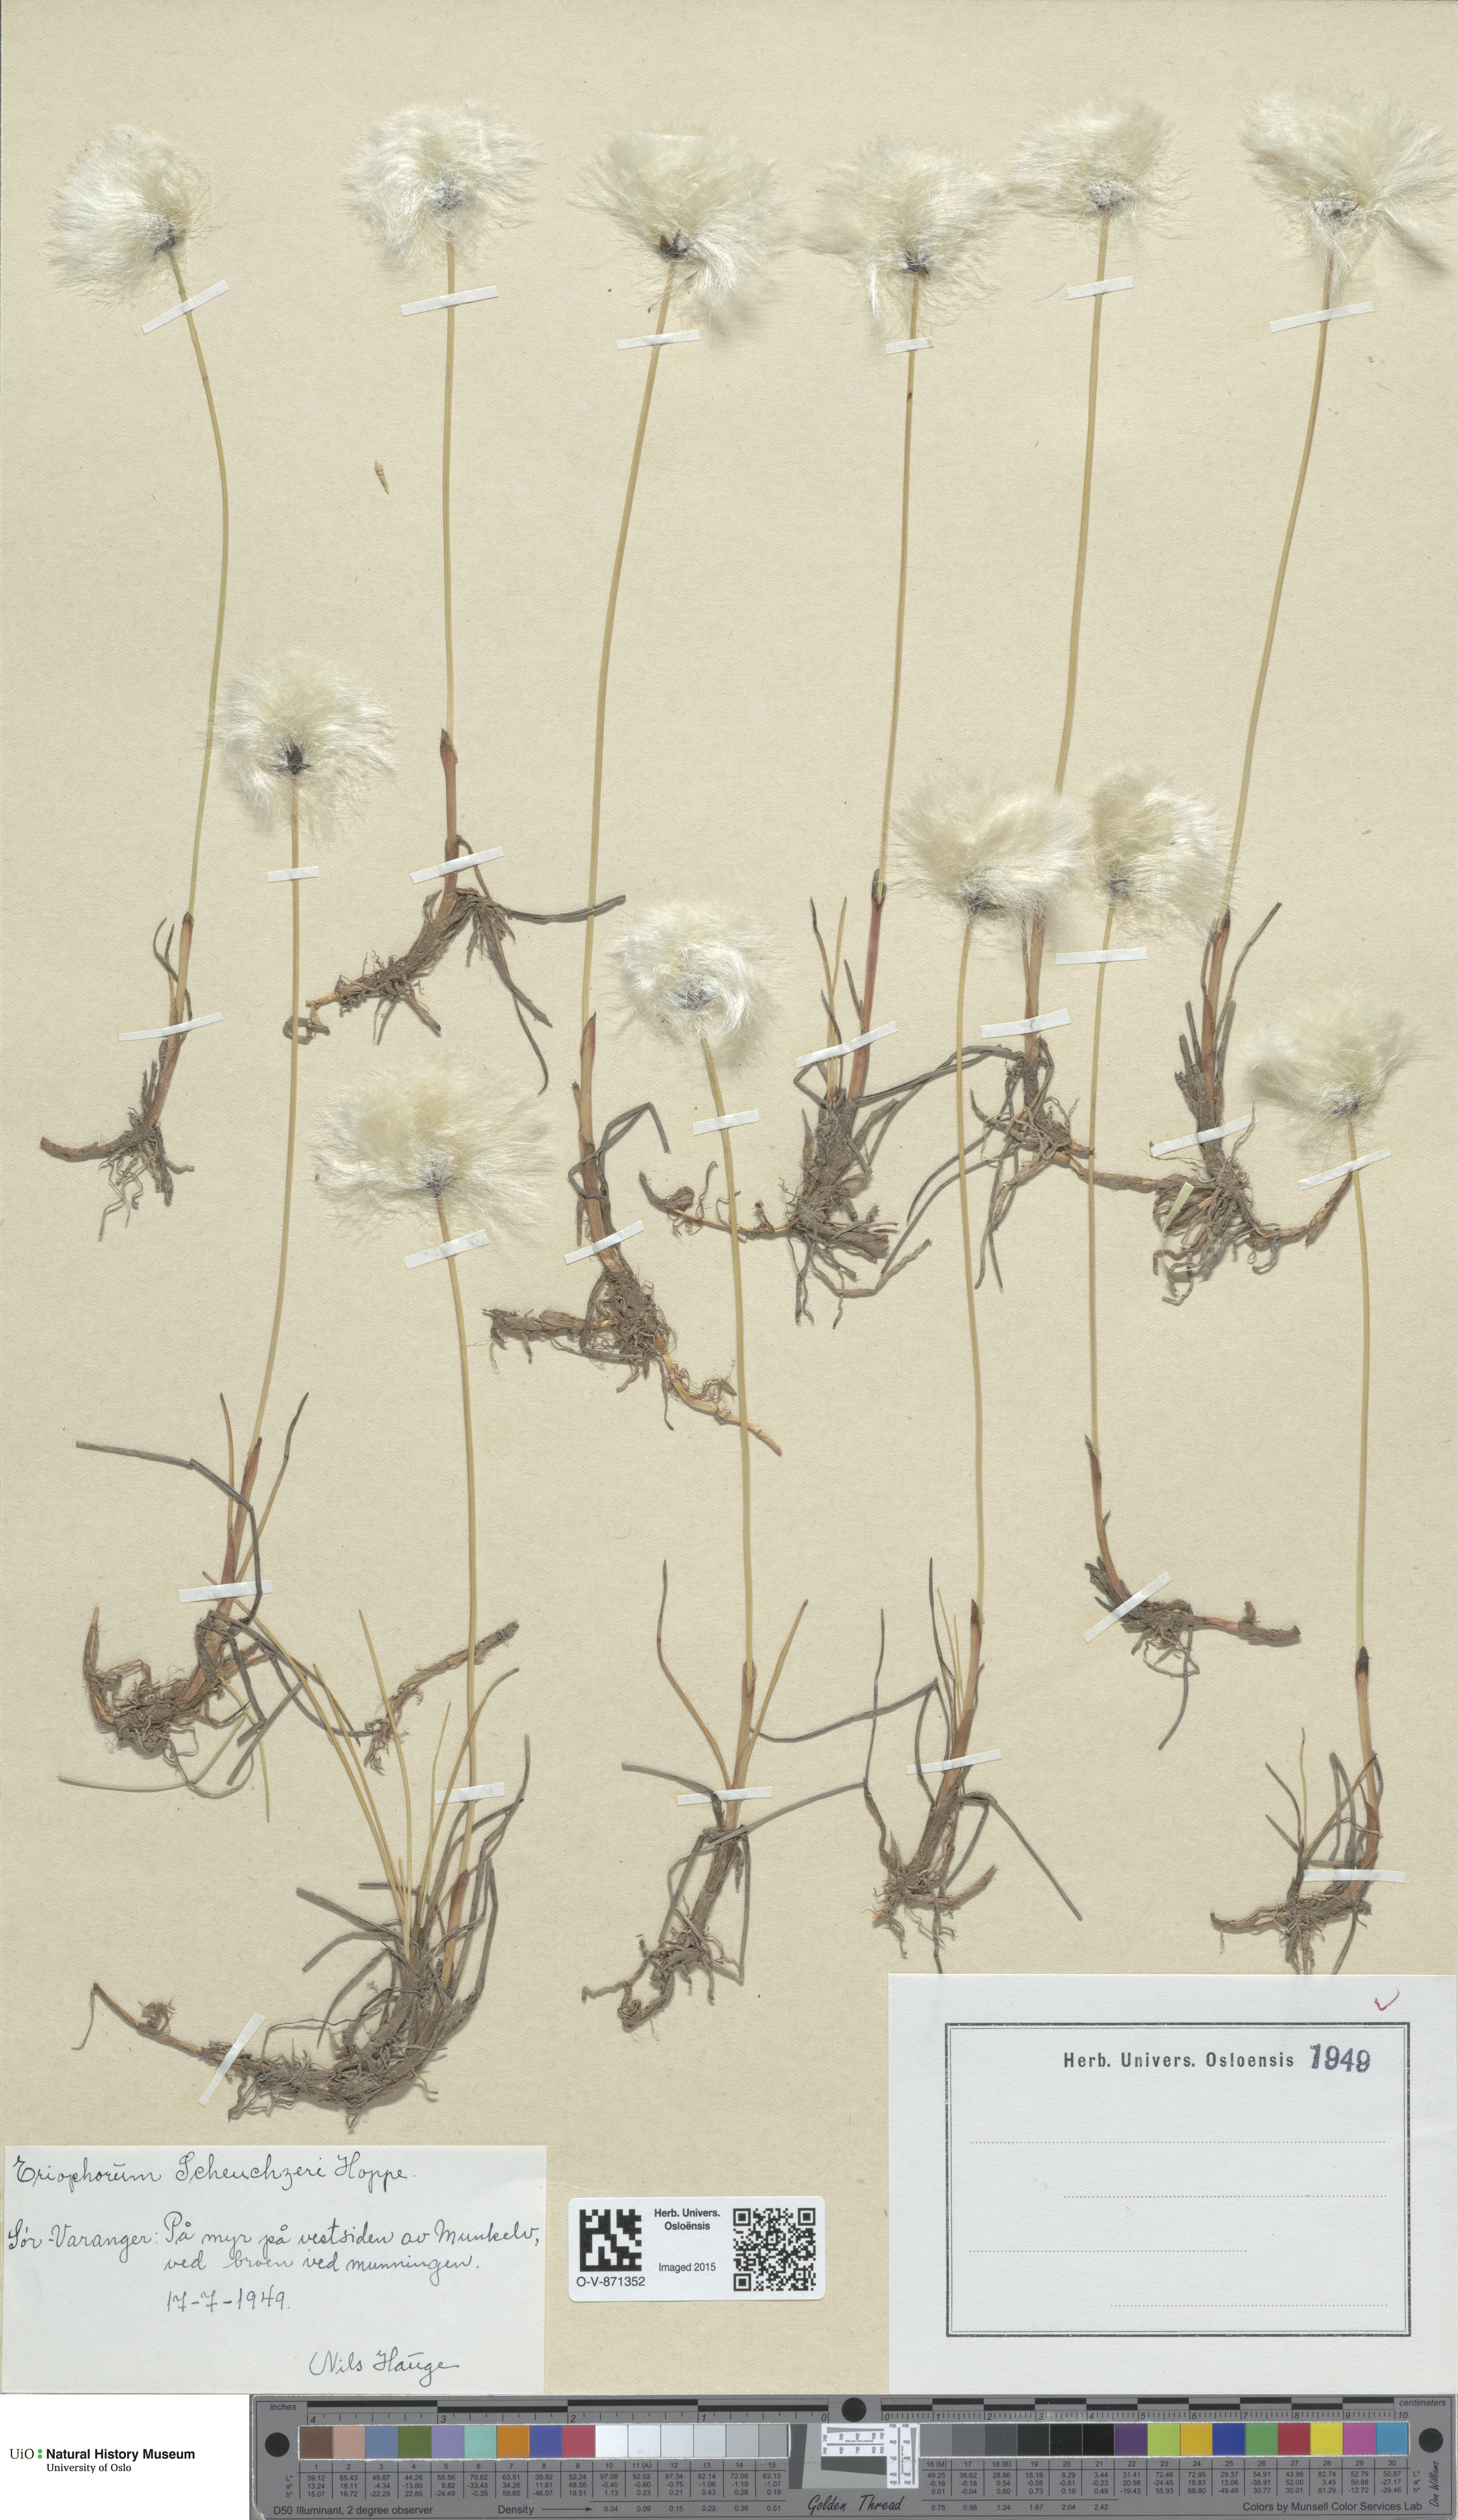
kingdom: Plantae
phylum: Tracheophyta
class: Liliopsida
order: Poales
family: Cyperaceae
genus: Eriophorum
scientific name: Eriophorum scheuchzeri
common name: Scheuchzer's cottongrass
